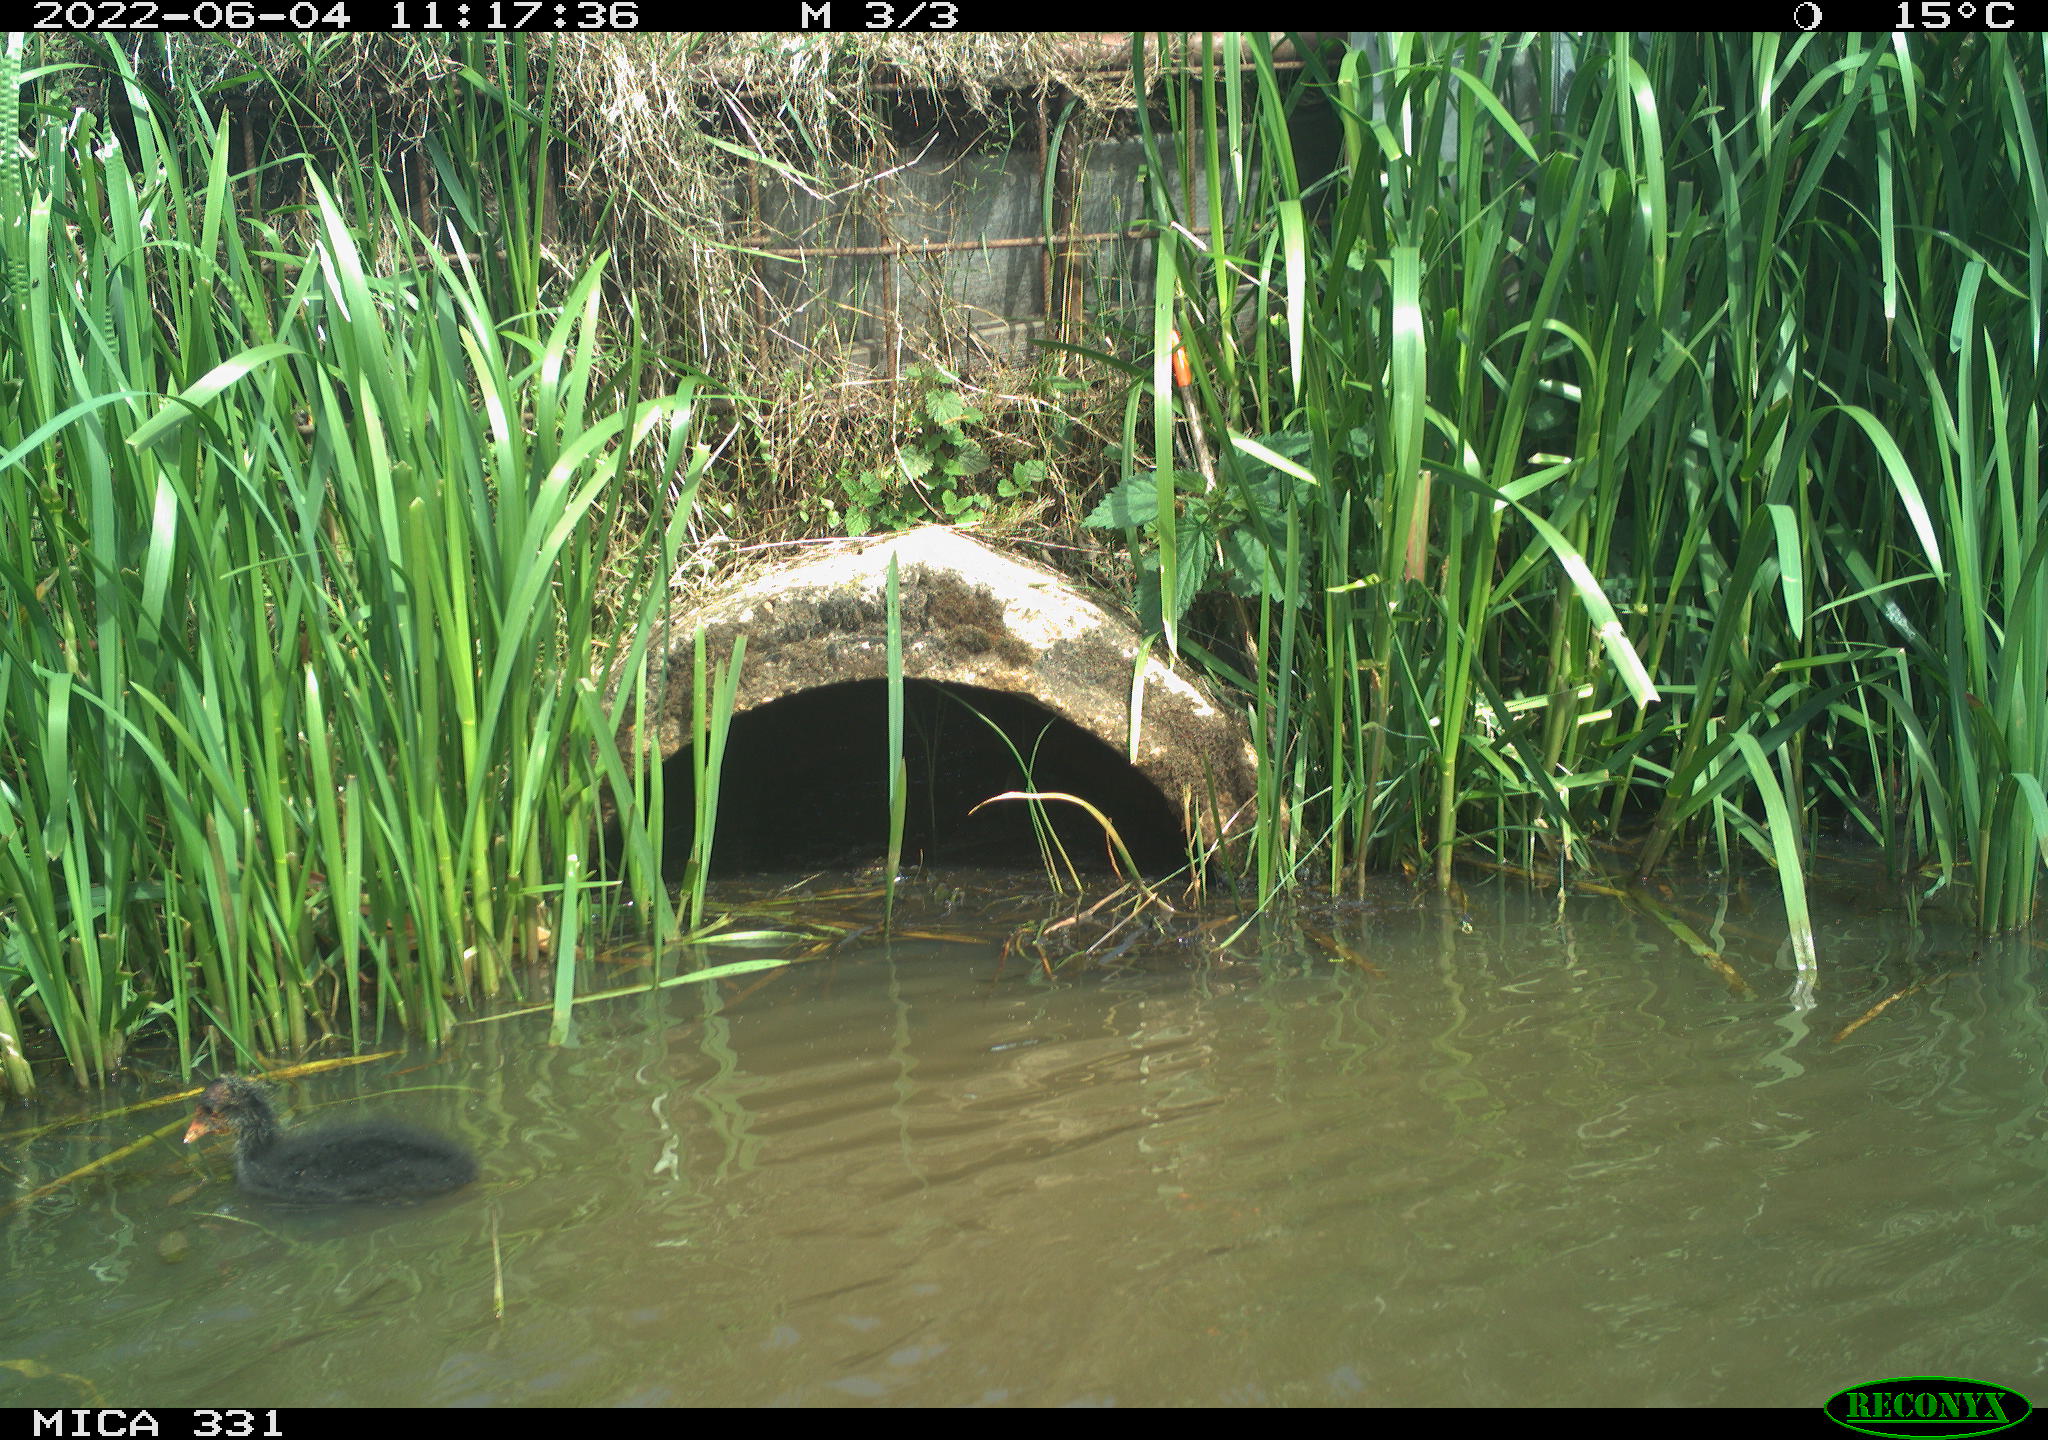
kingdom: Animalia
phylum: Chordata
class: Aves
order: Gruiformes
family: Rallidae
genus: Fulica
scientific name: Fulica atra
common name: Eurasian coot
